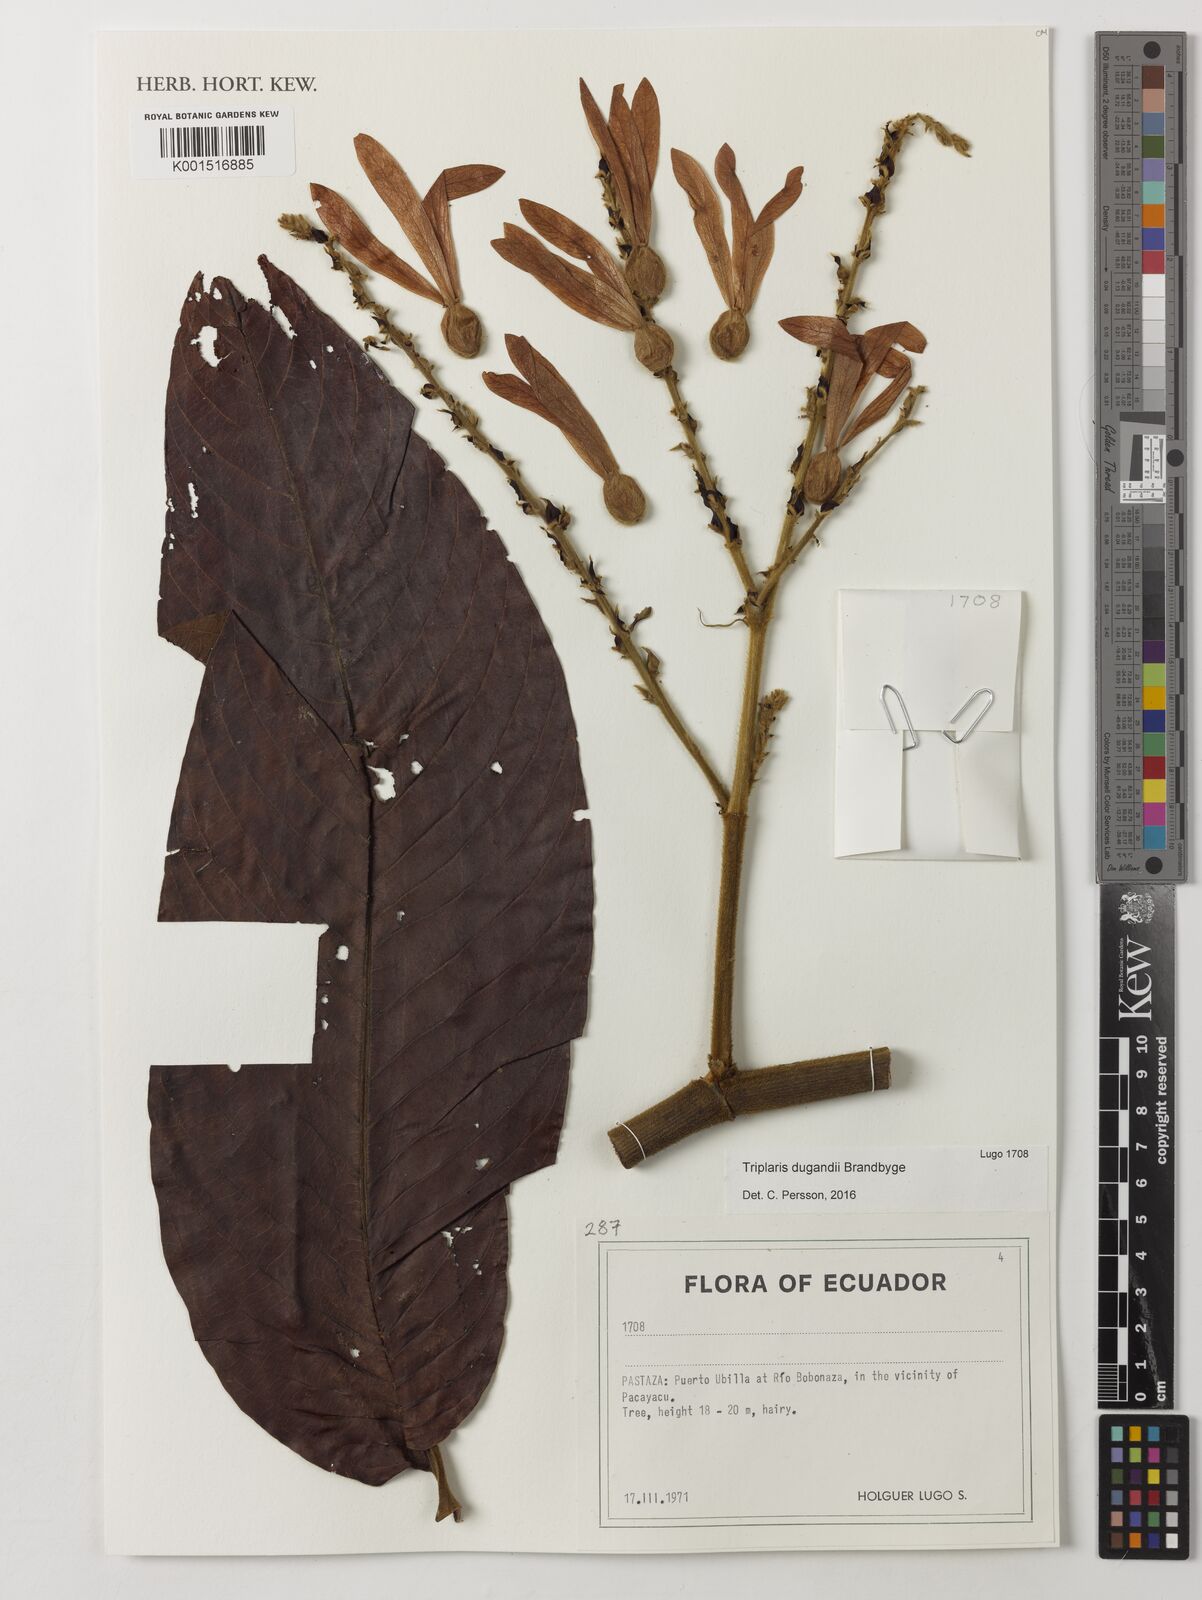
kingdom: Plantae
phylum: Tracheophyta
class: Magnoliopsida
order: Caryophyllales
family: Polygonaceae
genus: Triplaris
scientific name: Triplaris dugandii
